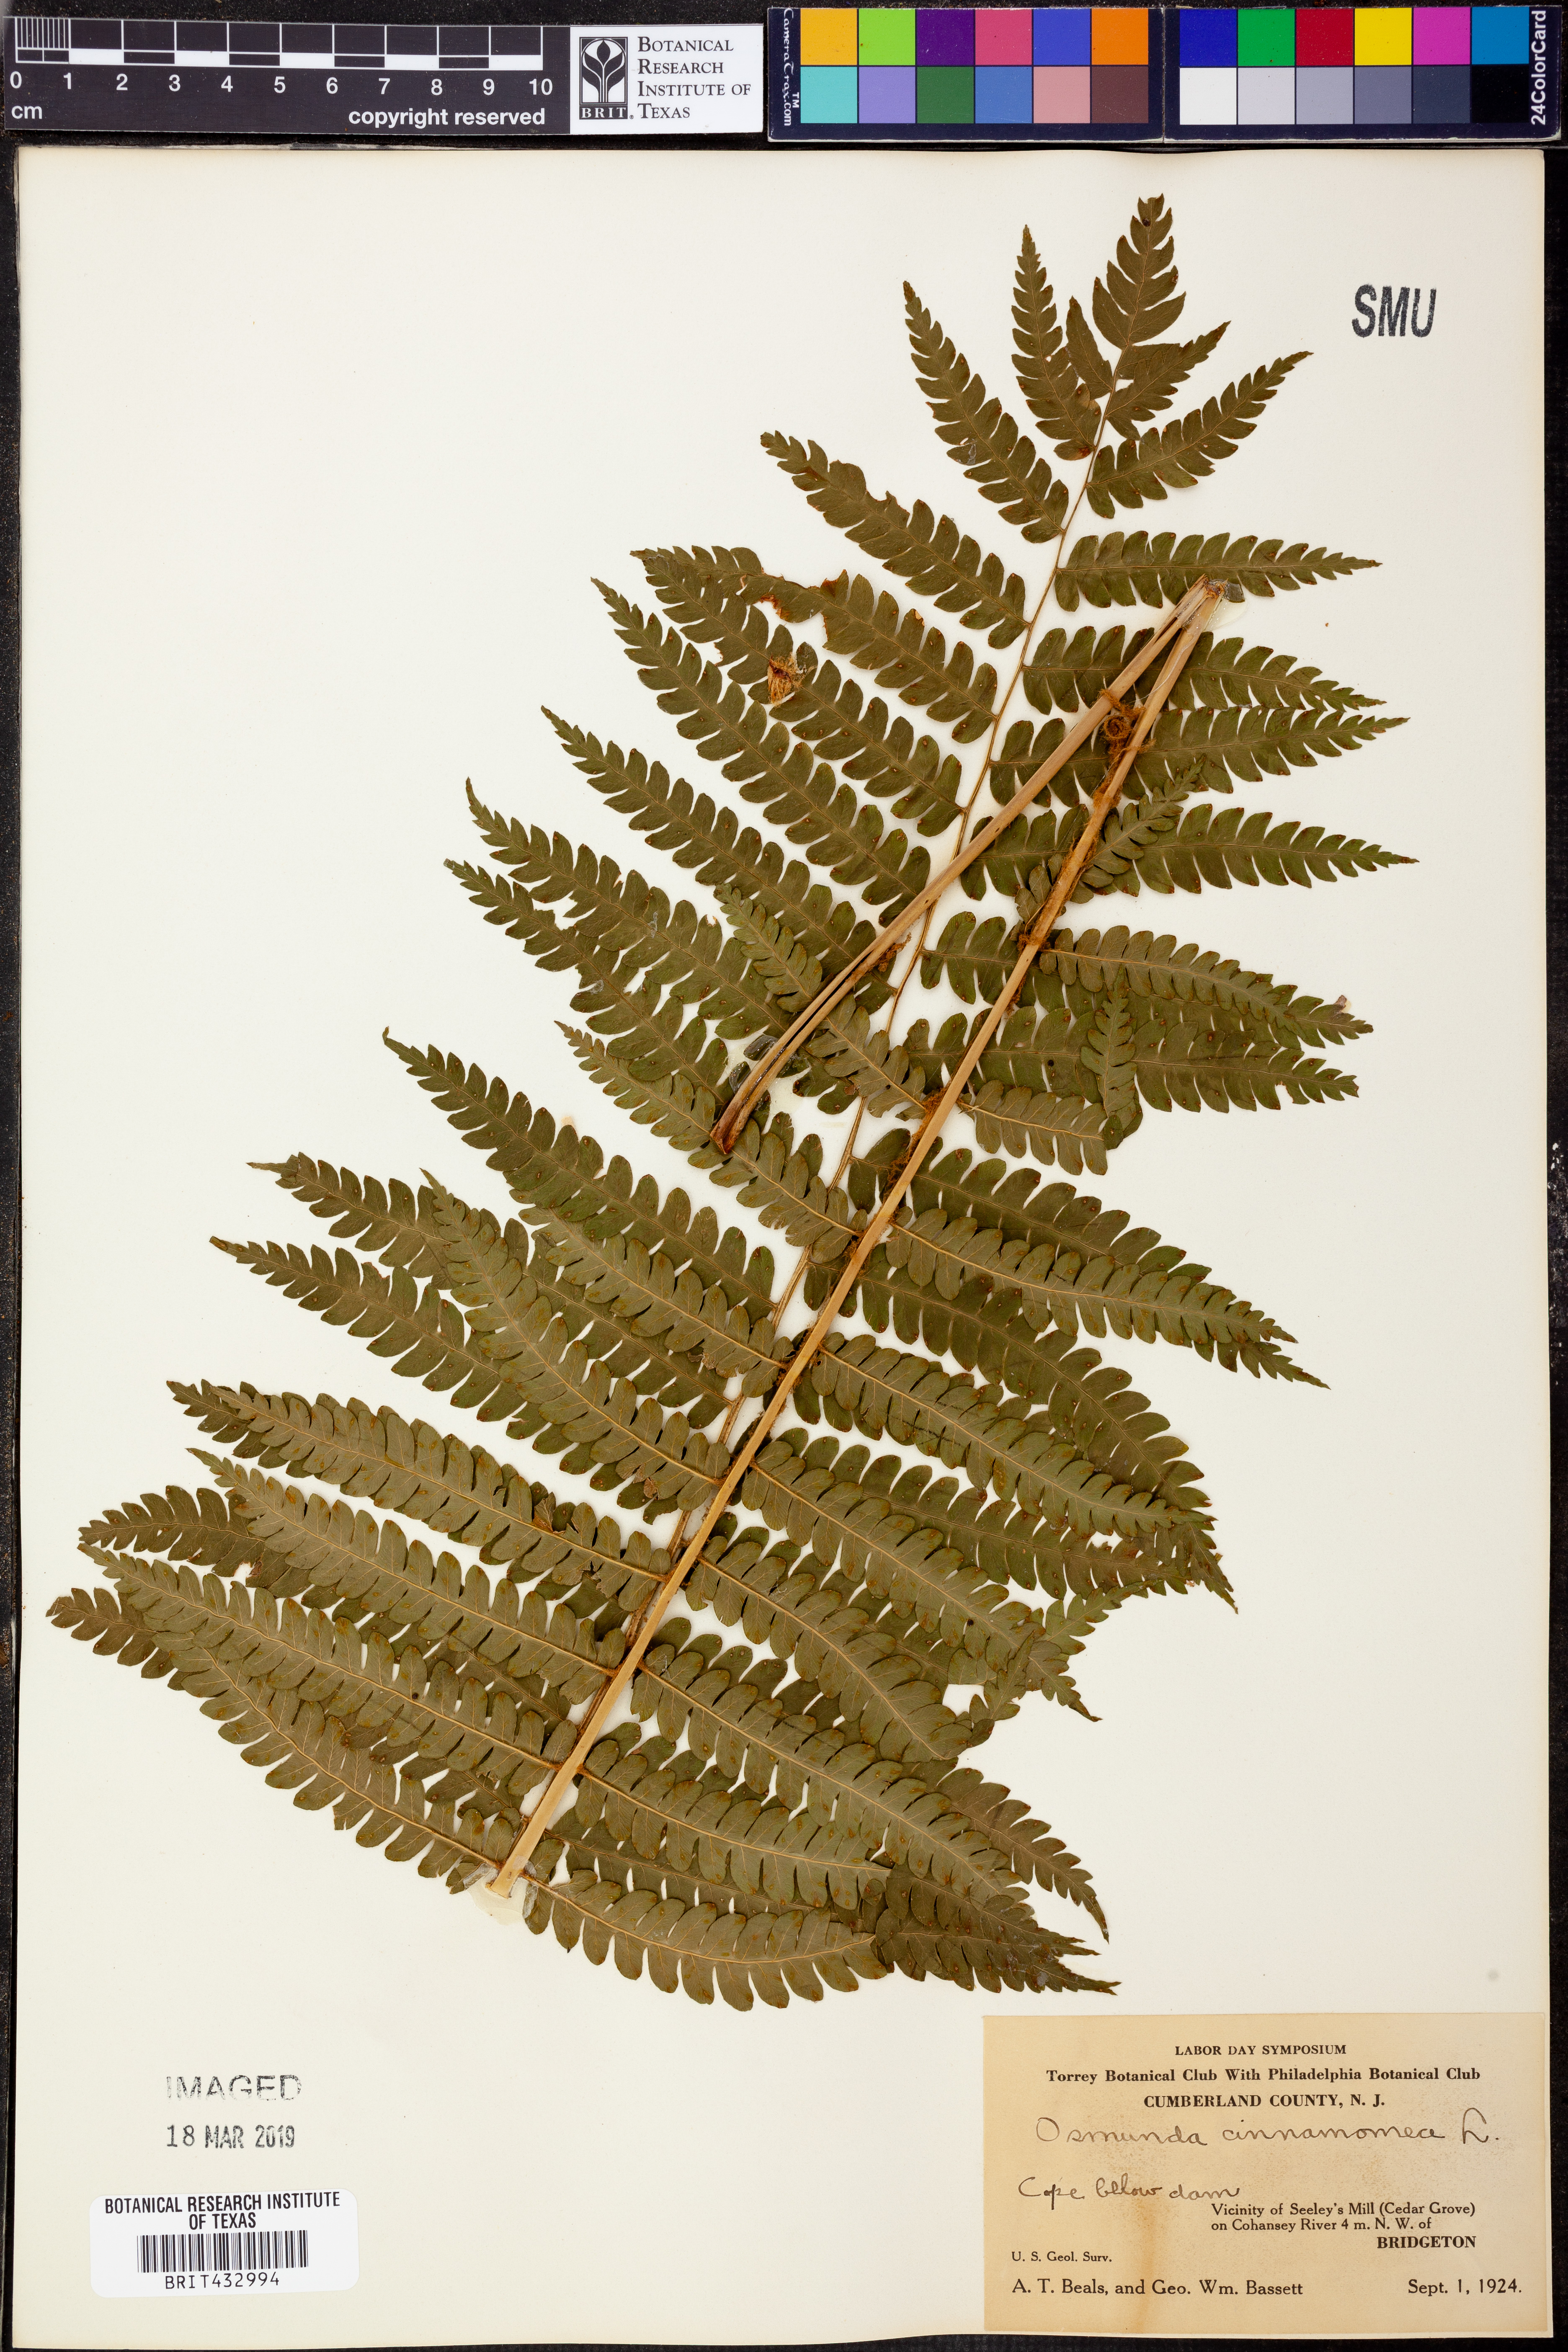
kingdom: Plantae
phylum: Tracheophyta
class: Polypodiopsida
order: Osmundales
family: Osmundaceae
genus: Osmundastrum
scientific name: Osmundastrum cinnamomeum
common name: Cinnamon fern
